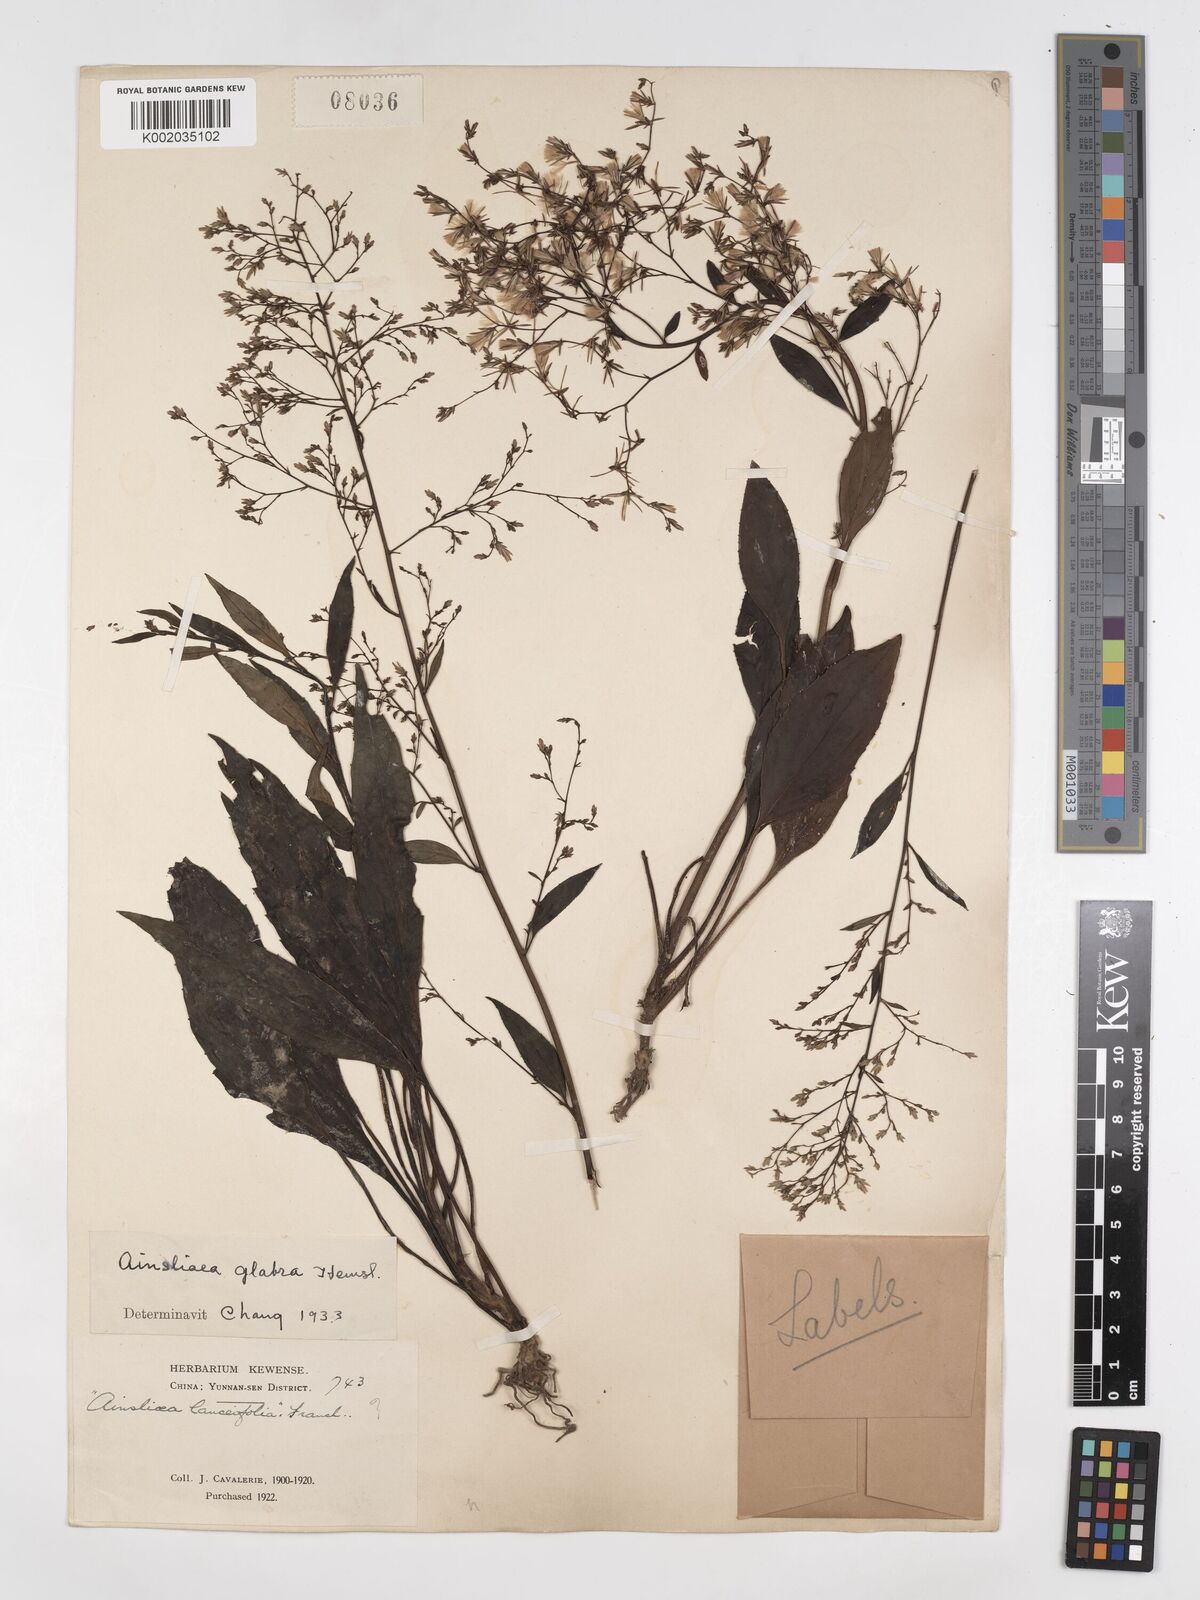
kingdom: Plantae
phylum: Tracheophyta
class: Magnoliopsida
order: Asterales
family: Asteraceae
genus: Ainsliaea
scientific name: Ainsliaea glabra
